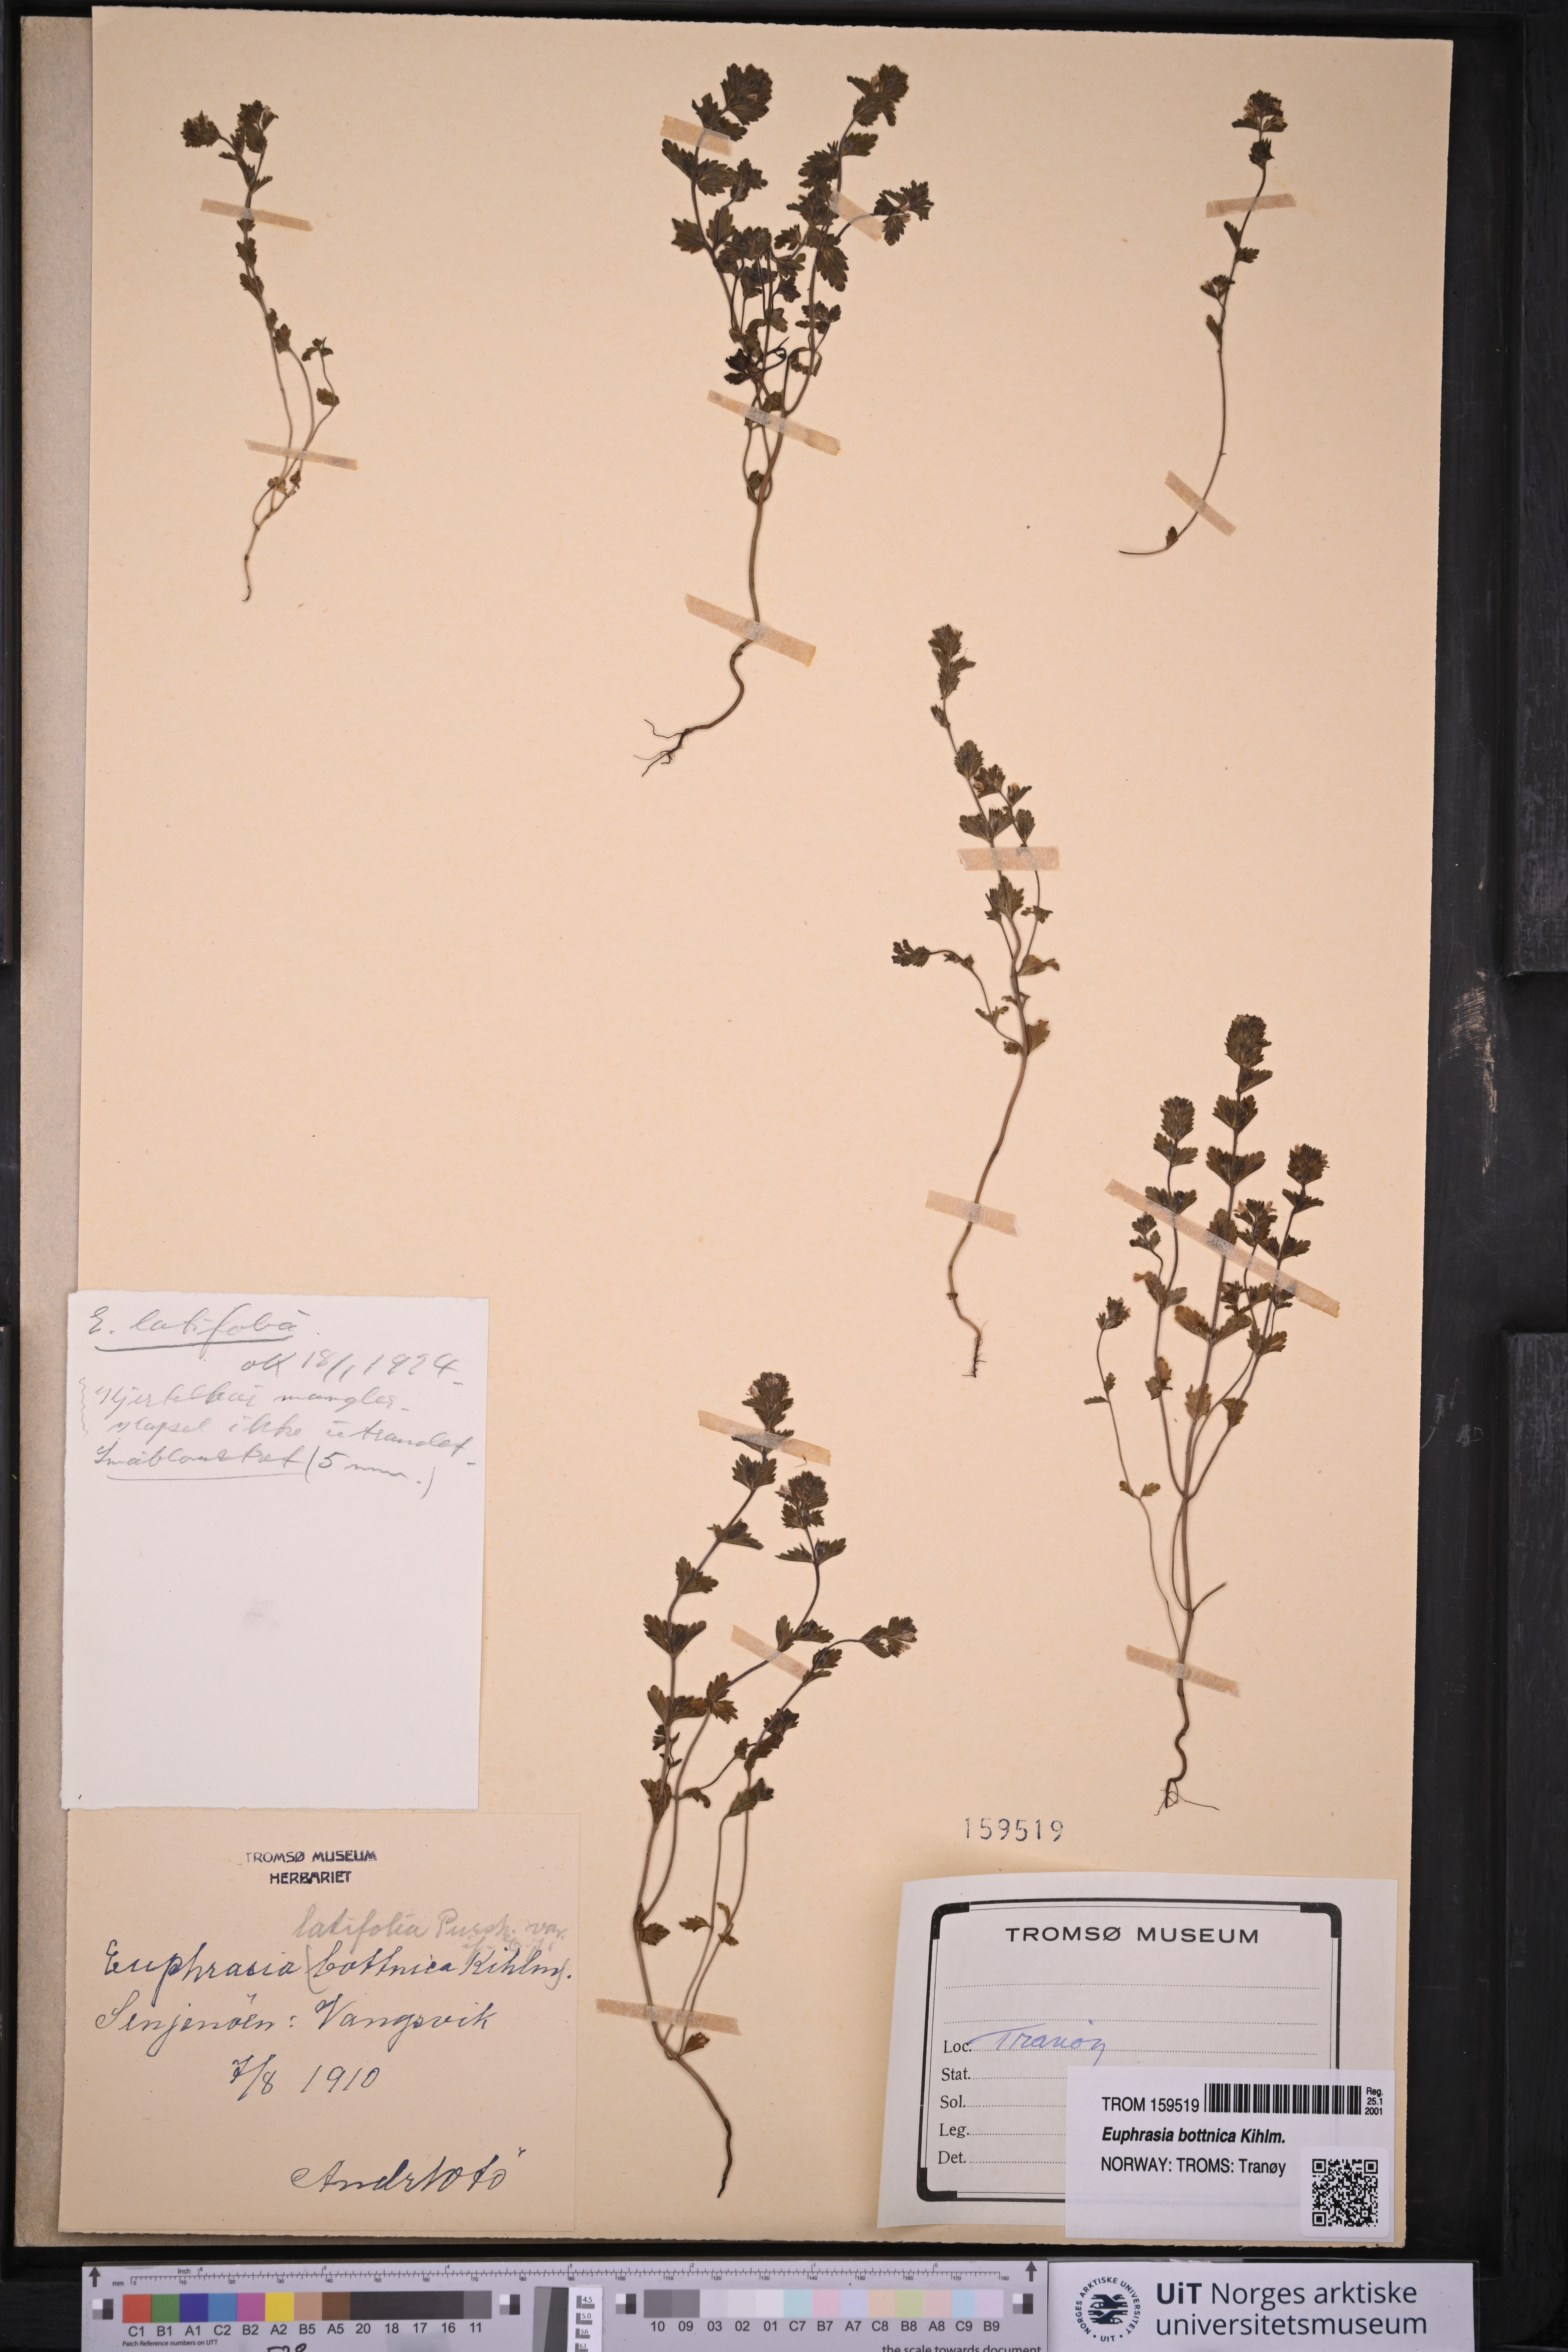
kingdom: Plantae
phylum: Tracheophyta
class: Magnoliopsida
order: Lamiales
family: Orobanchaceae
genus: Euphrasia
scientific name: Euphrasia bottnica
